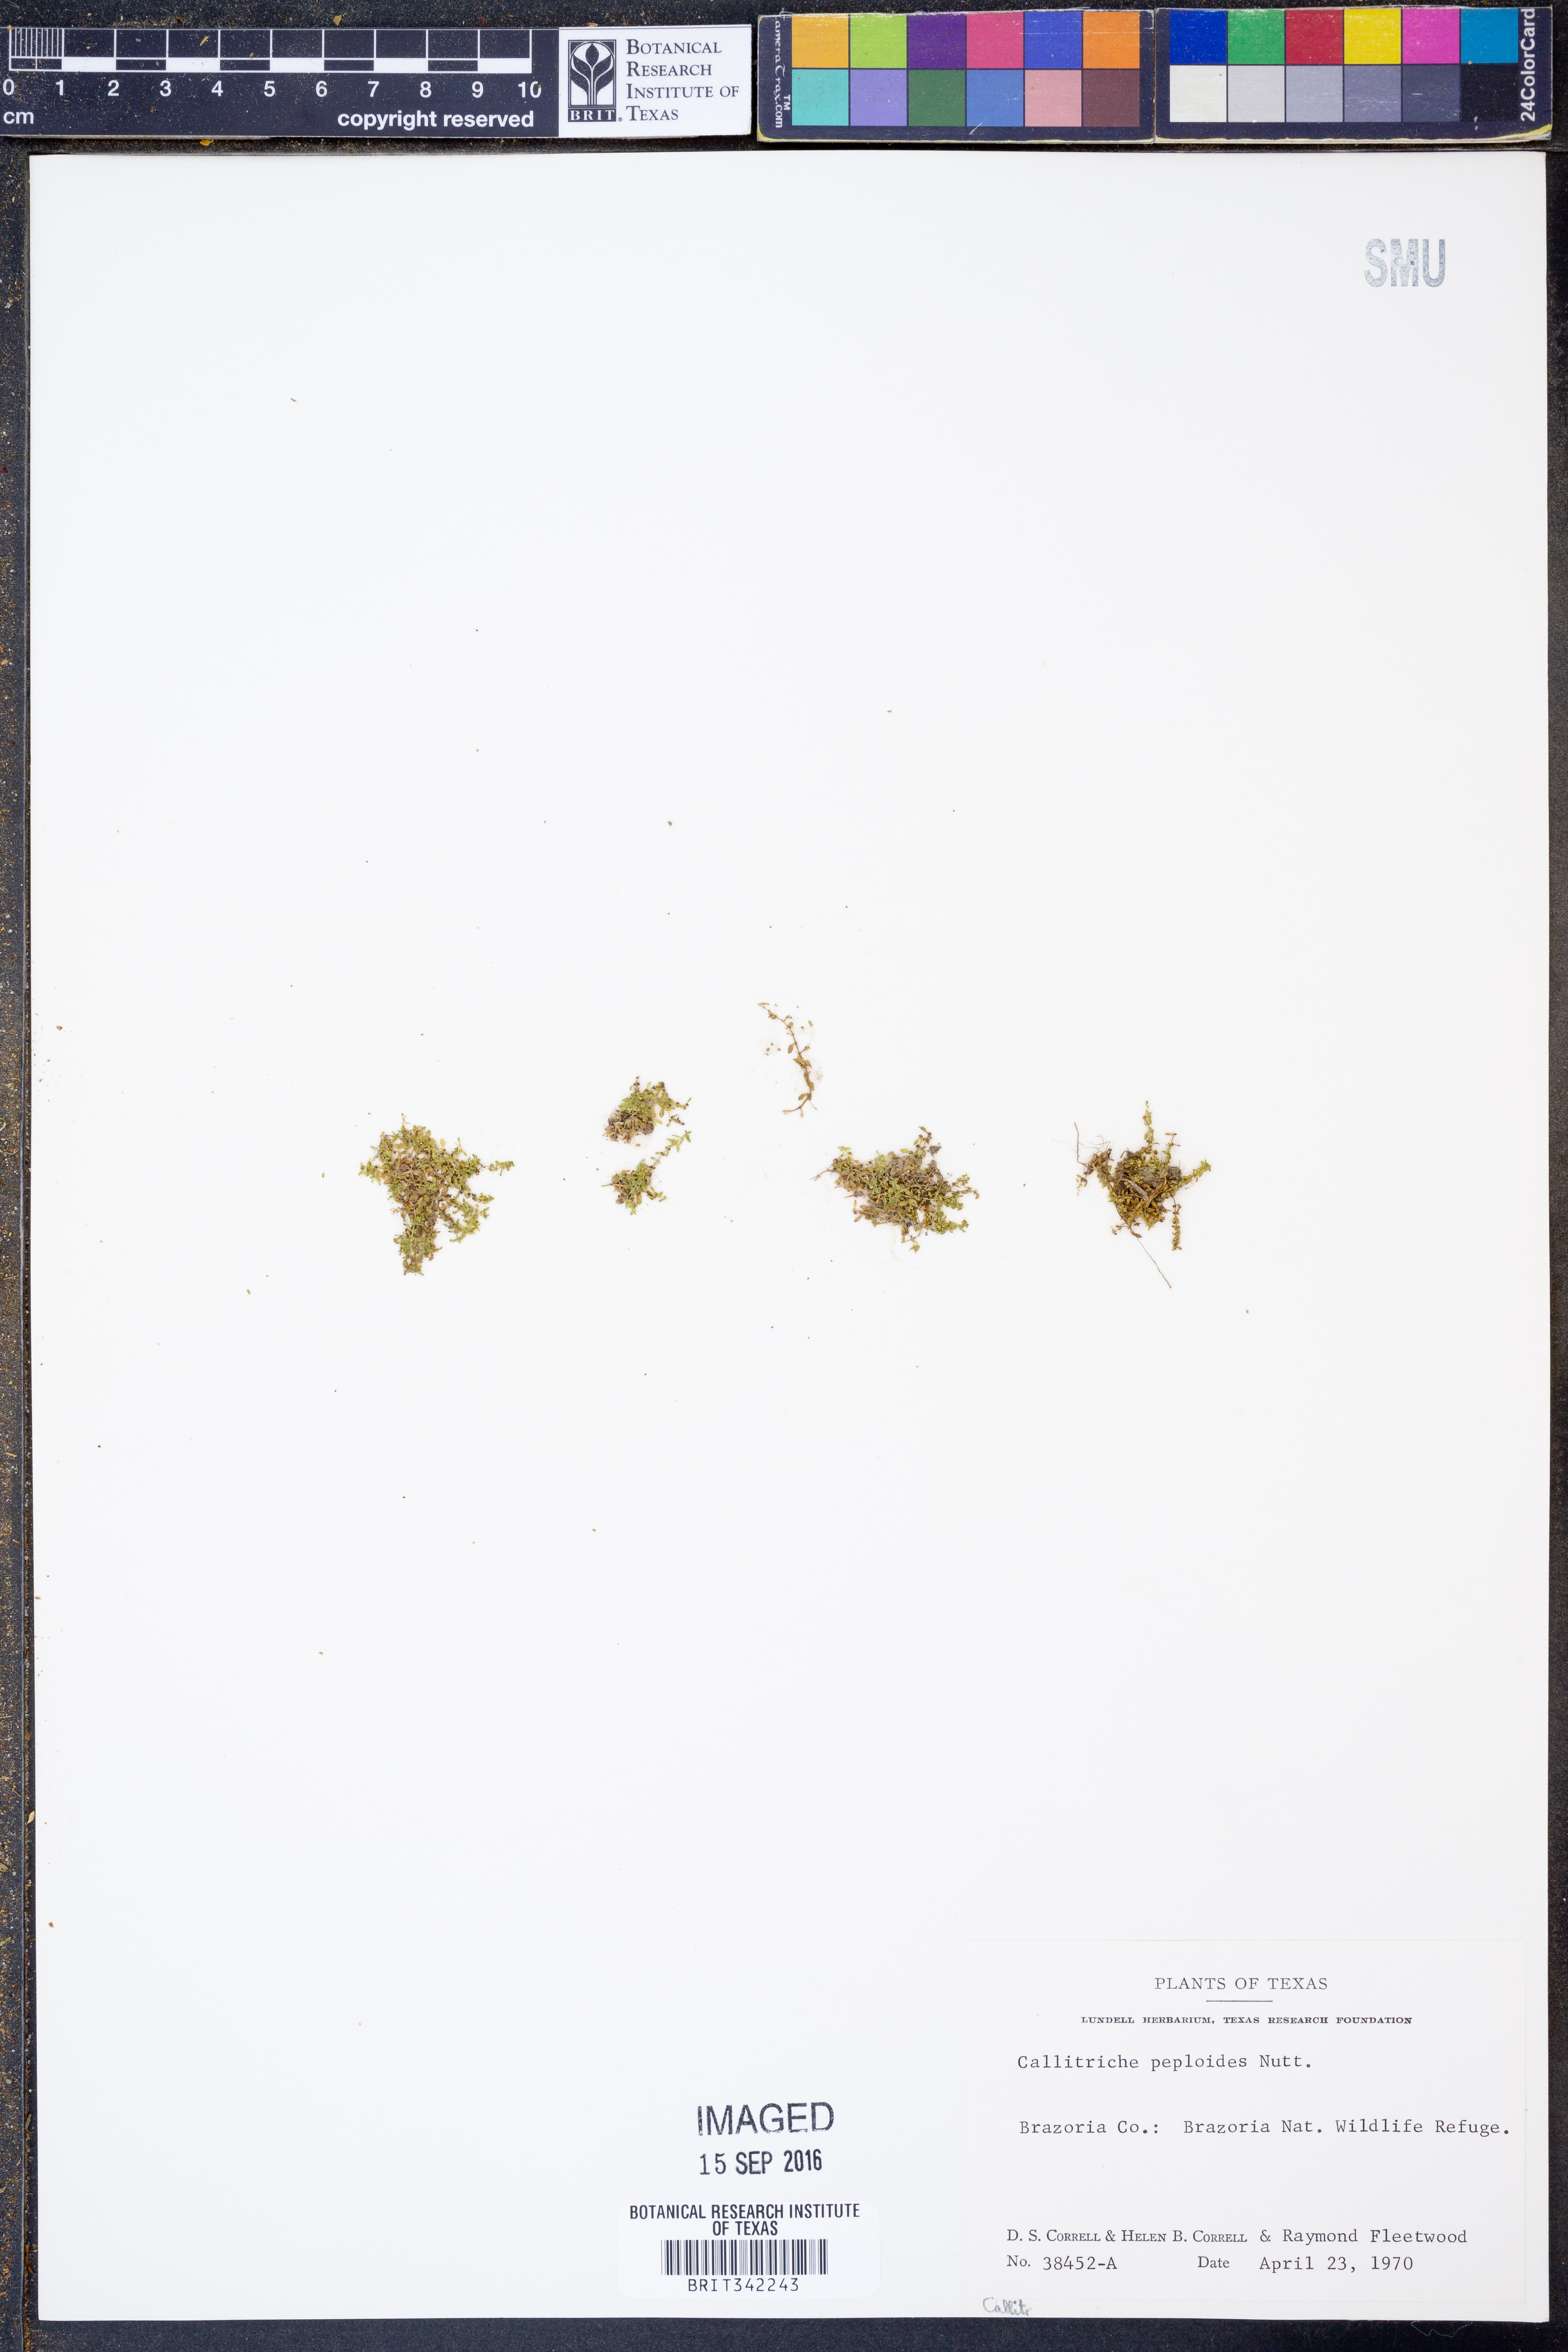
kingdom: Plantae
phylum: Tracheophyta
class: Magnoliopsida
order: Lamiales
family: Plantaginaceae
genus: Callitriche
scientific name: Callitriche peploides
